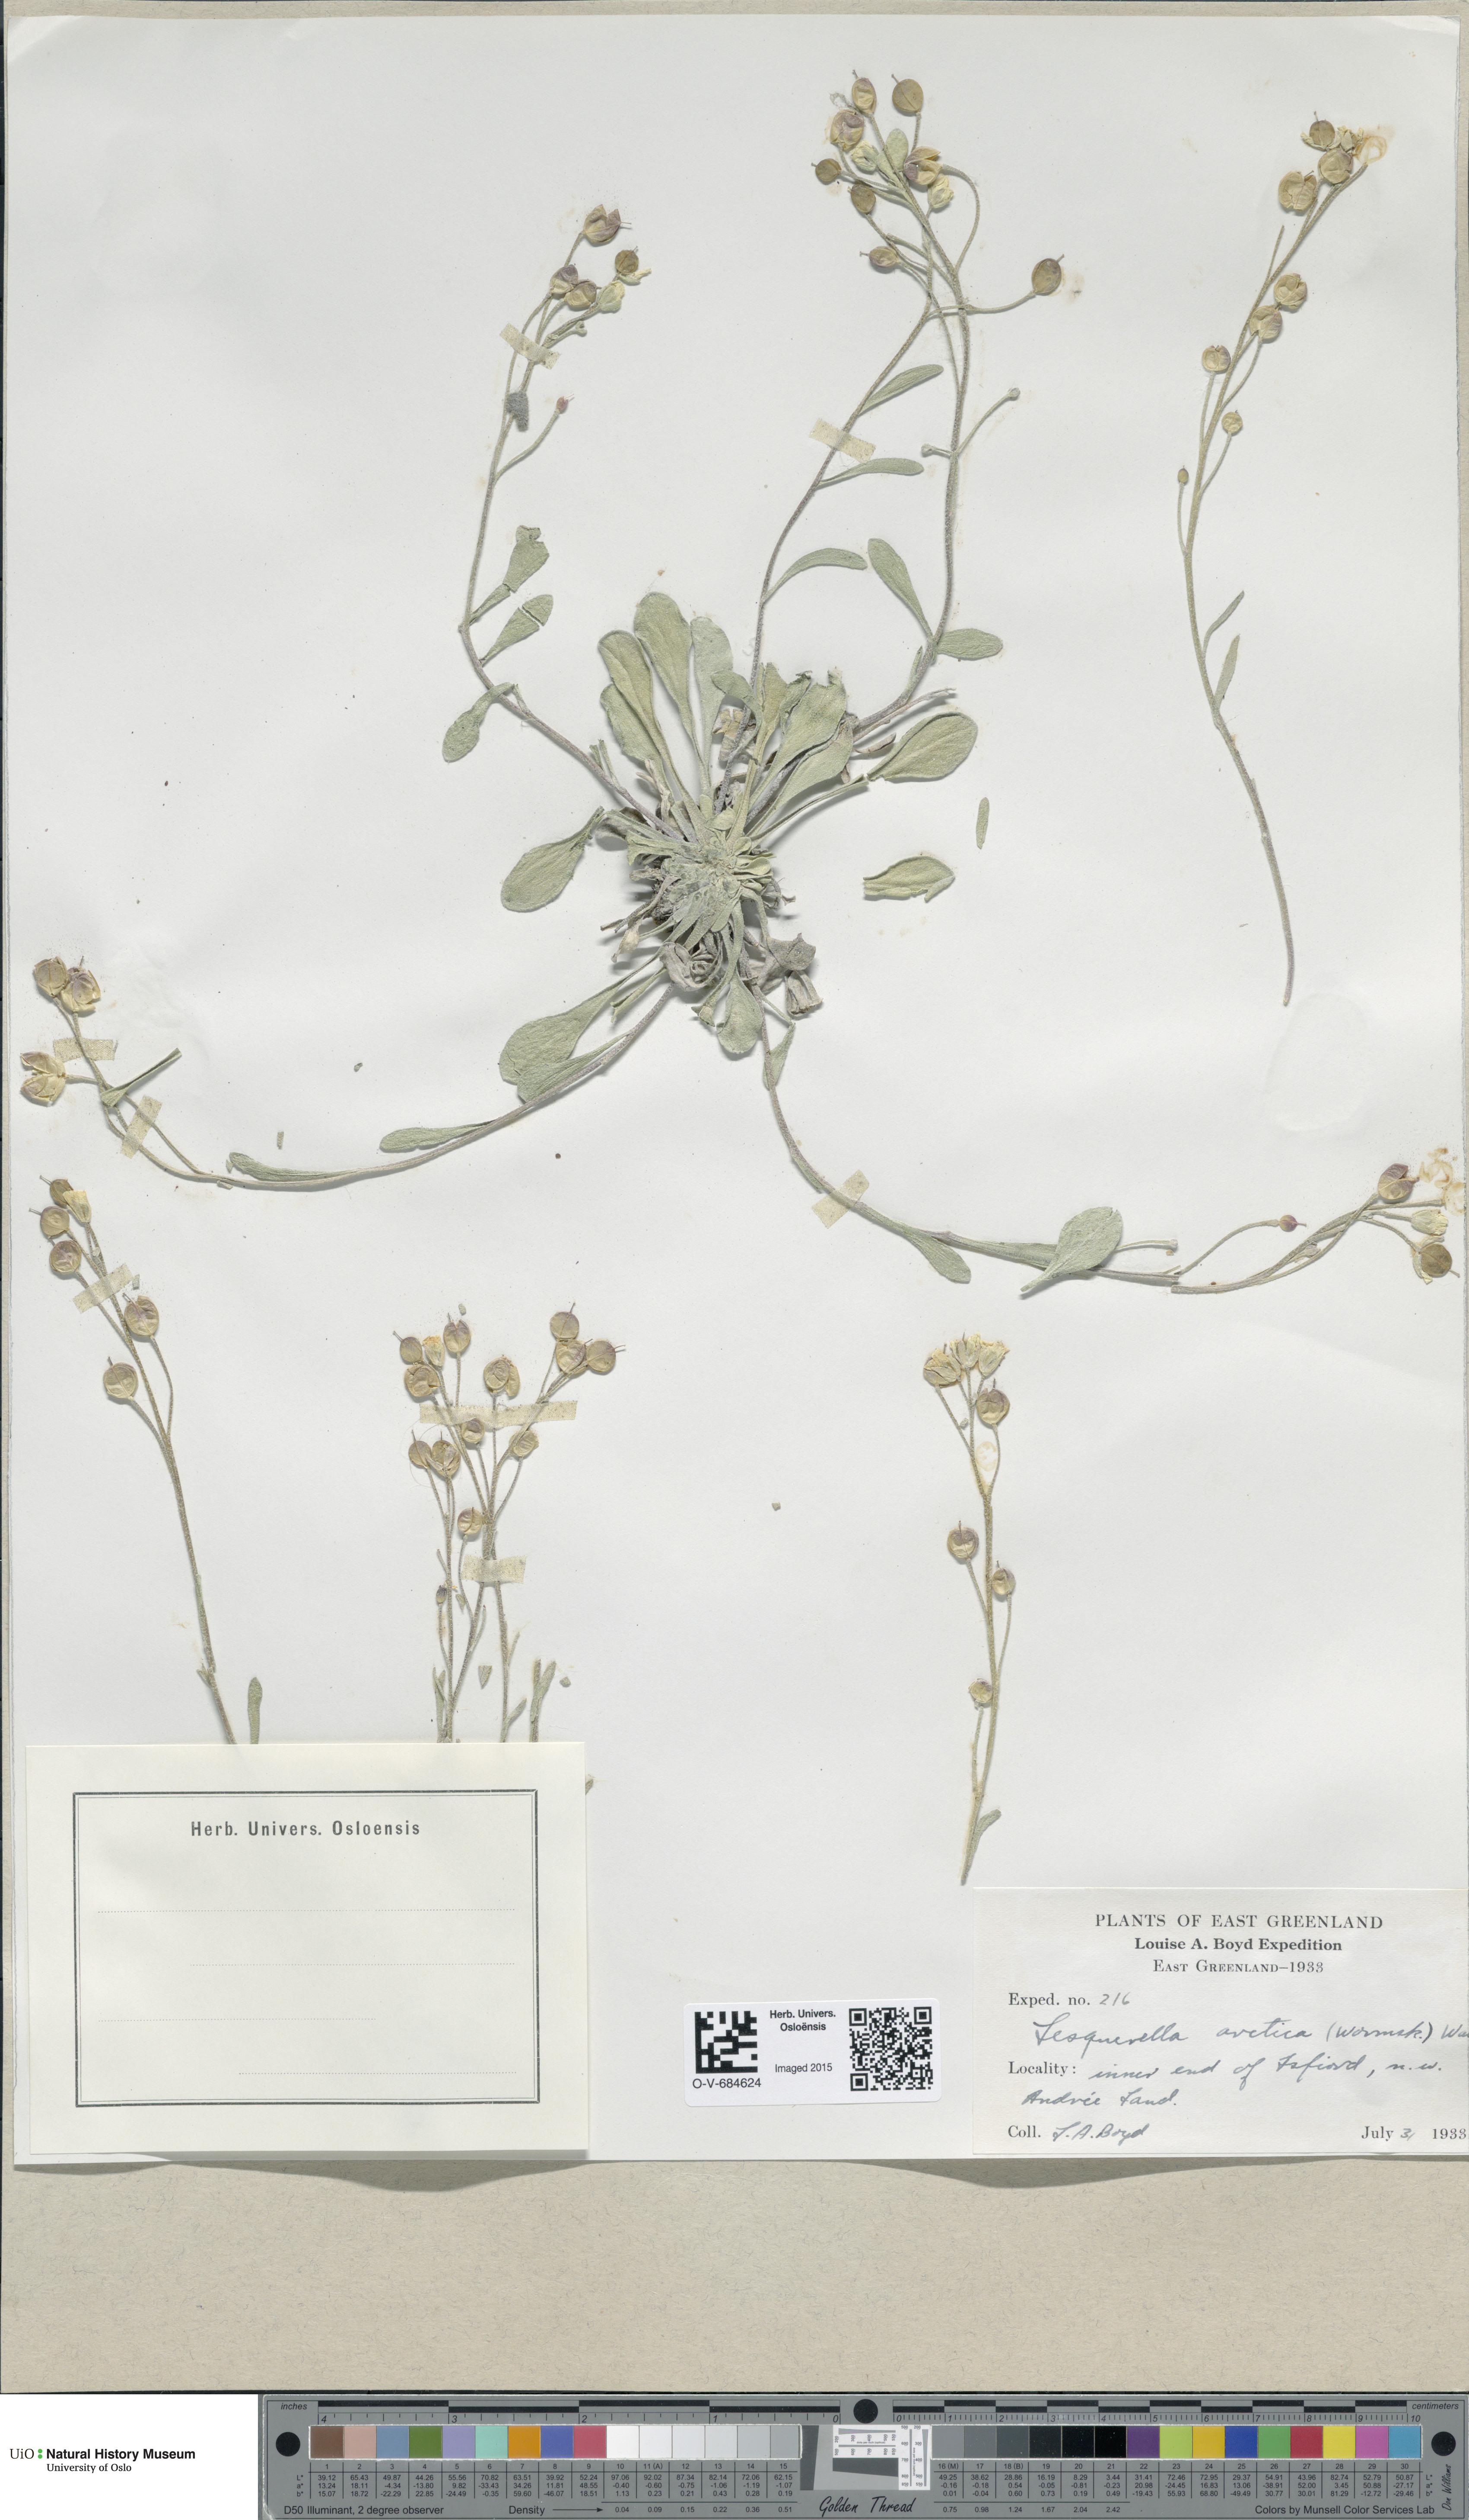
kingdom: Plantae
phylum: Tracheophyta
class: Magnoliopsida
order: Brassicales
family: Brassicaceae
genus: Physaria
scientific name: Physaria arctica
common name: Arctic bladderpod
